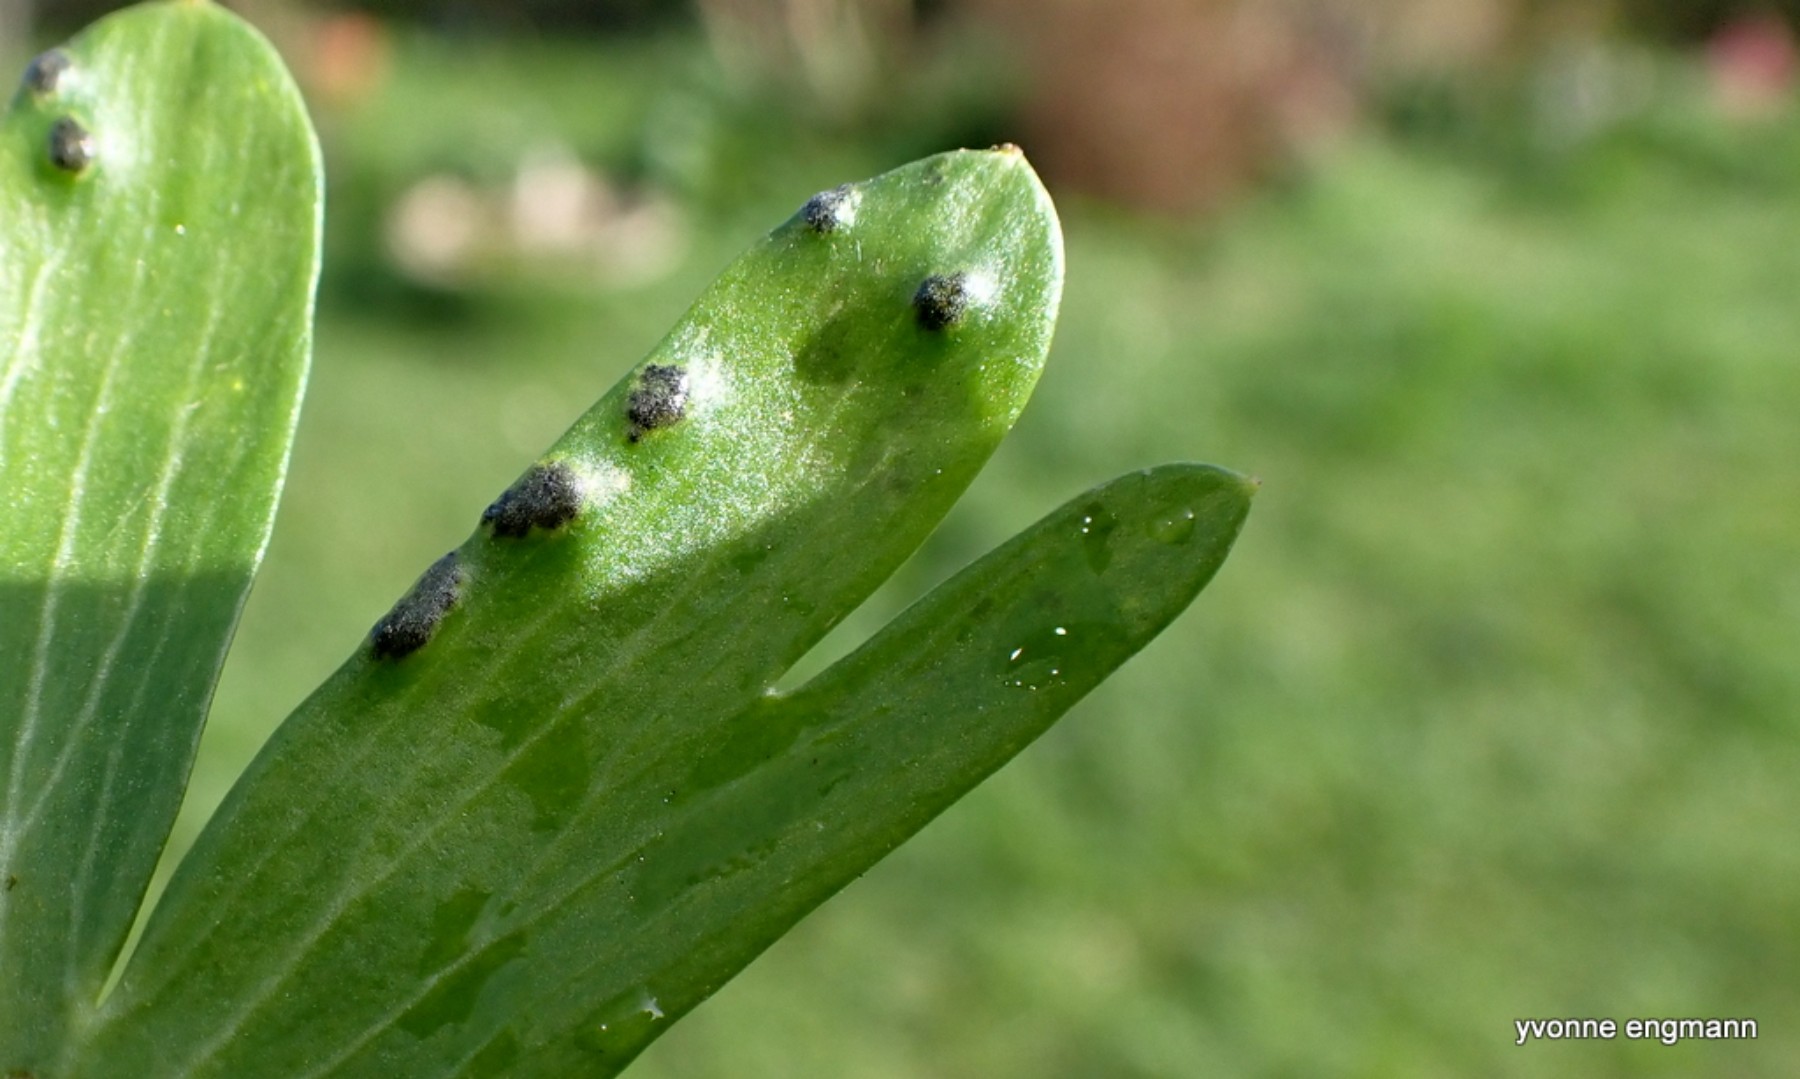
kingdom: Fungi
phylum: Basidiomycota
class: Ustilaginomycetes
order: Urocystidales
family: Urocystidaceae
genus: Urocystis
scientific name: Urocystis eranthidis
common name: erantis-brand
